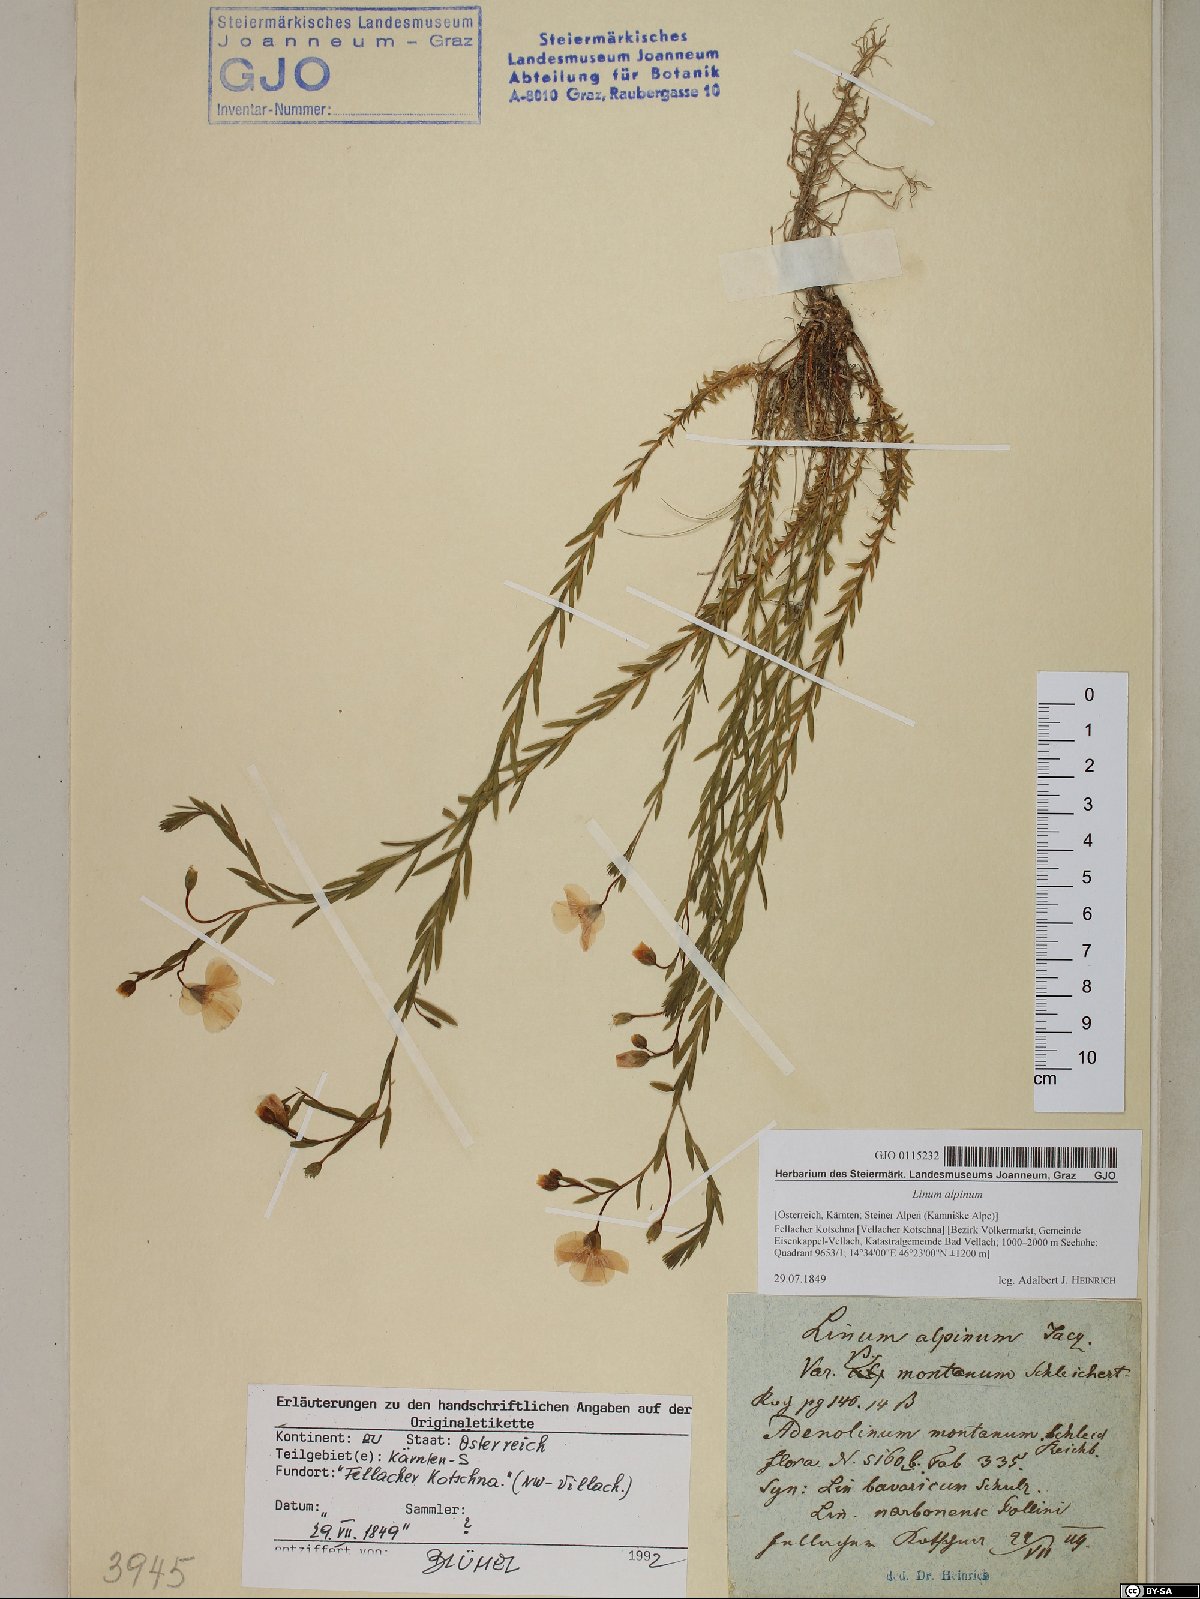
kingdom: Plantae
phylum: Tracheophyta
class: Magnoliopsida
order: Malpighiales
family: Linaceae
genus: Linum
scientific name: Linum alpinum
